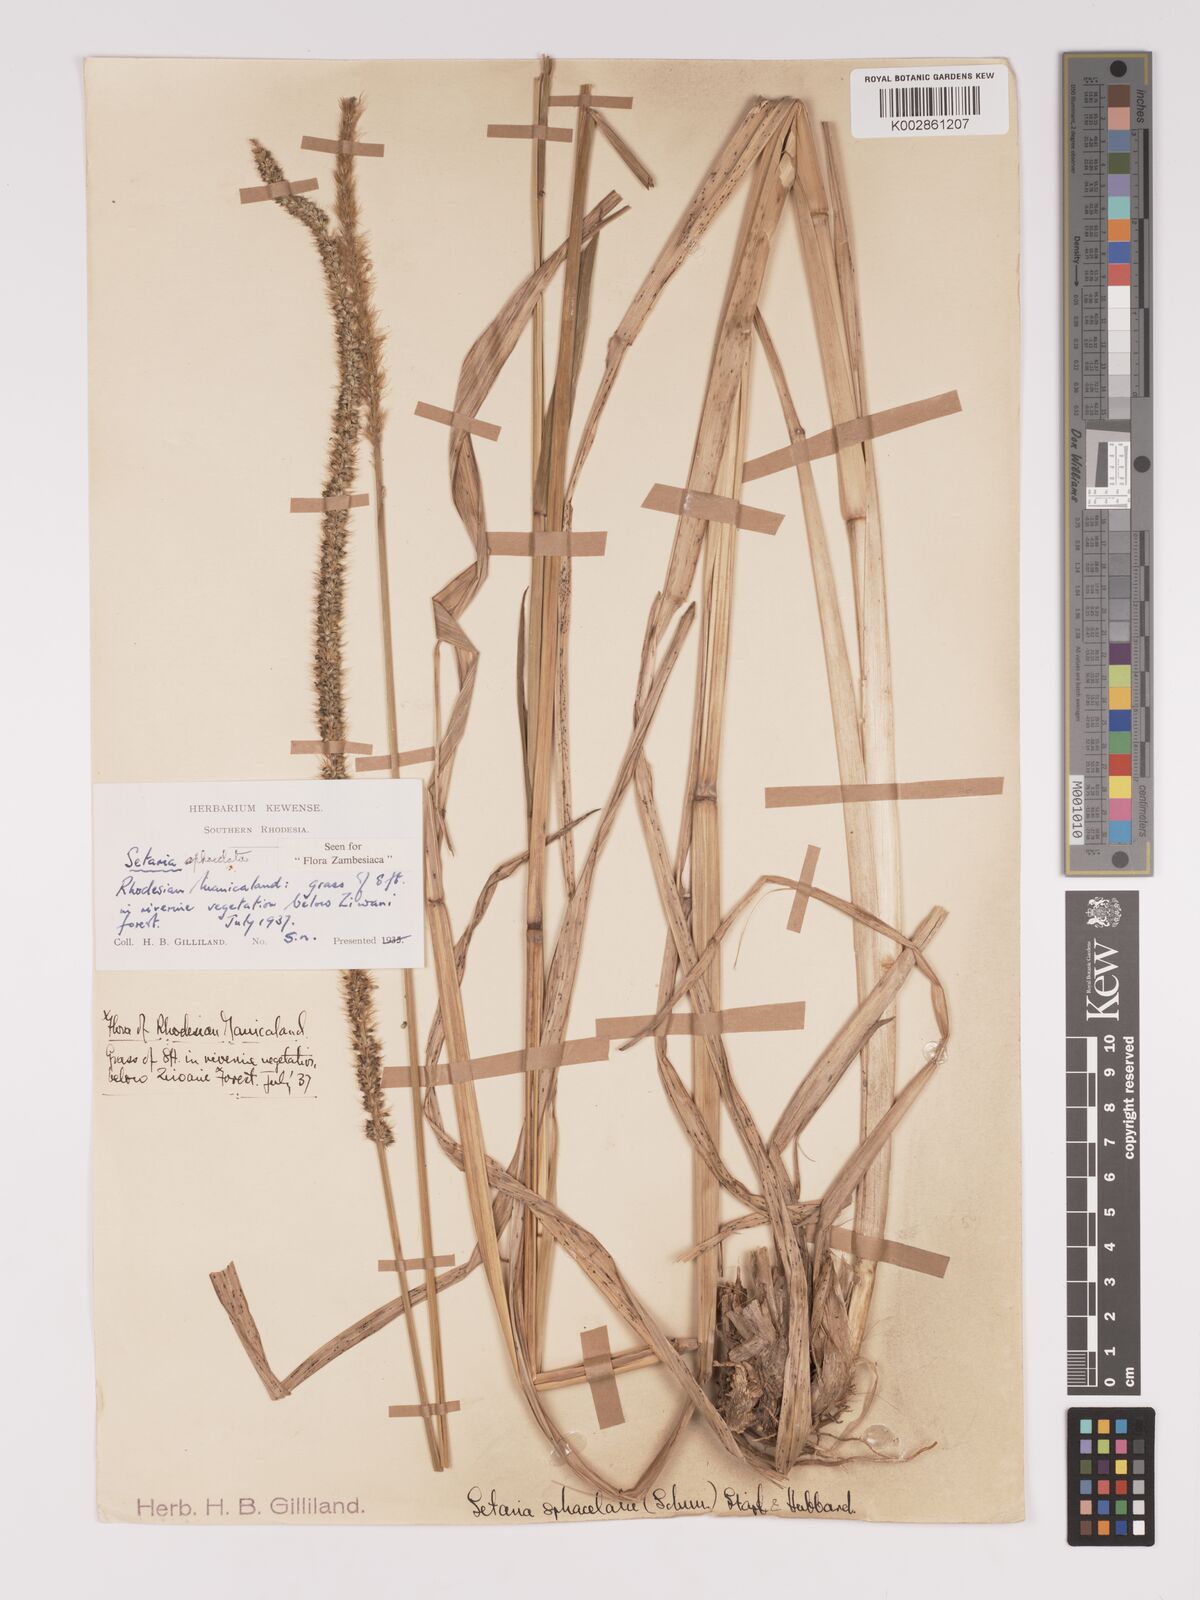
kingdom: Plantae
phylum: Tracheophyta
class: Liliopsida
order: Poales
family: Poaceae
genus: Setaria
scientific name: Setaria sphacelata
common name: African bristlegrass
